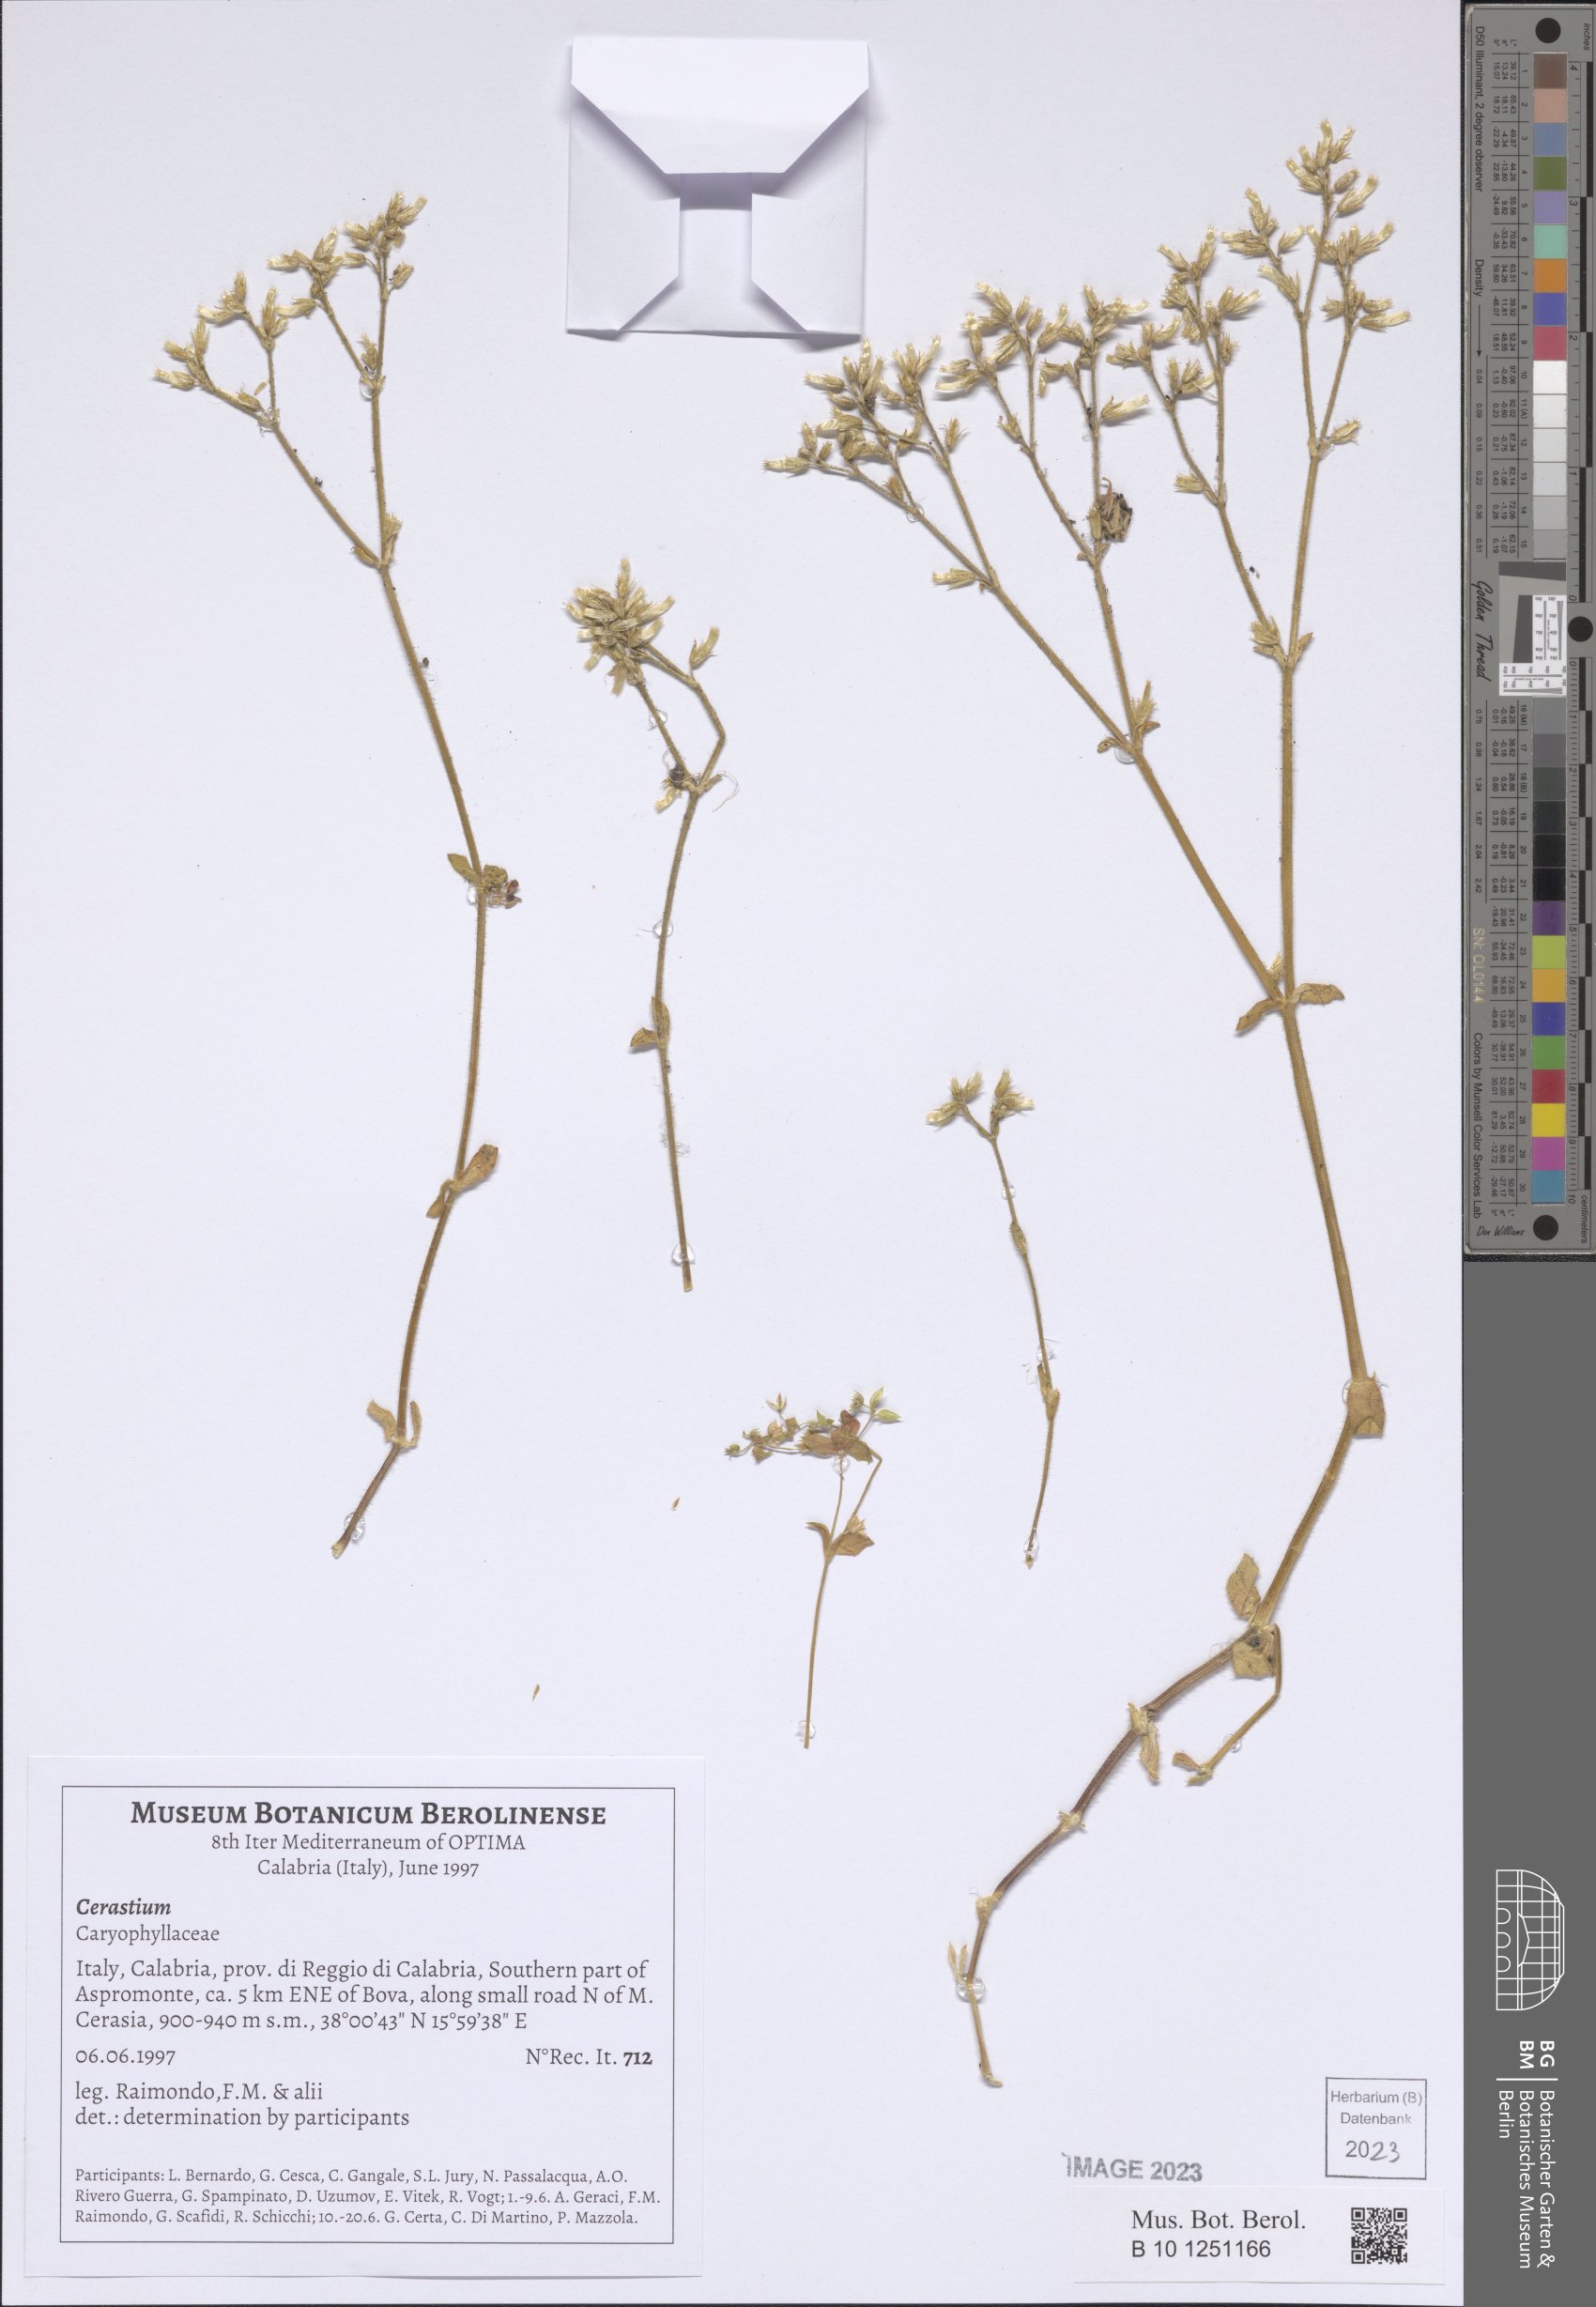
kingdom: Plantae
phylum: Tracheophyta
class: Magnoliopsida
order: Caryophyllales
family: Caryophyllaceae
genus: Cerastium
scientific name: Cerastium
